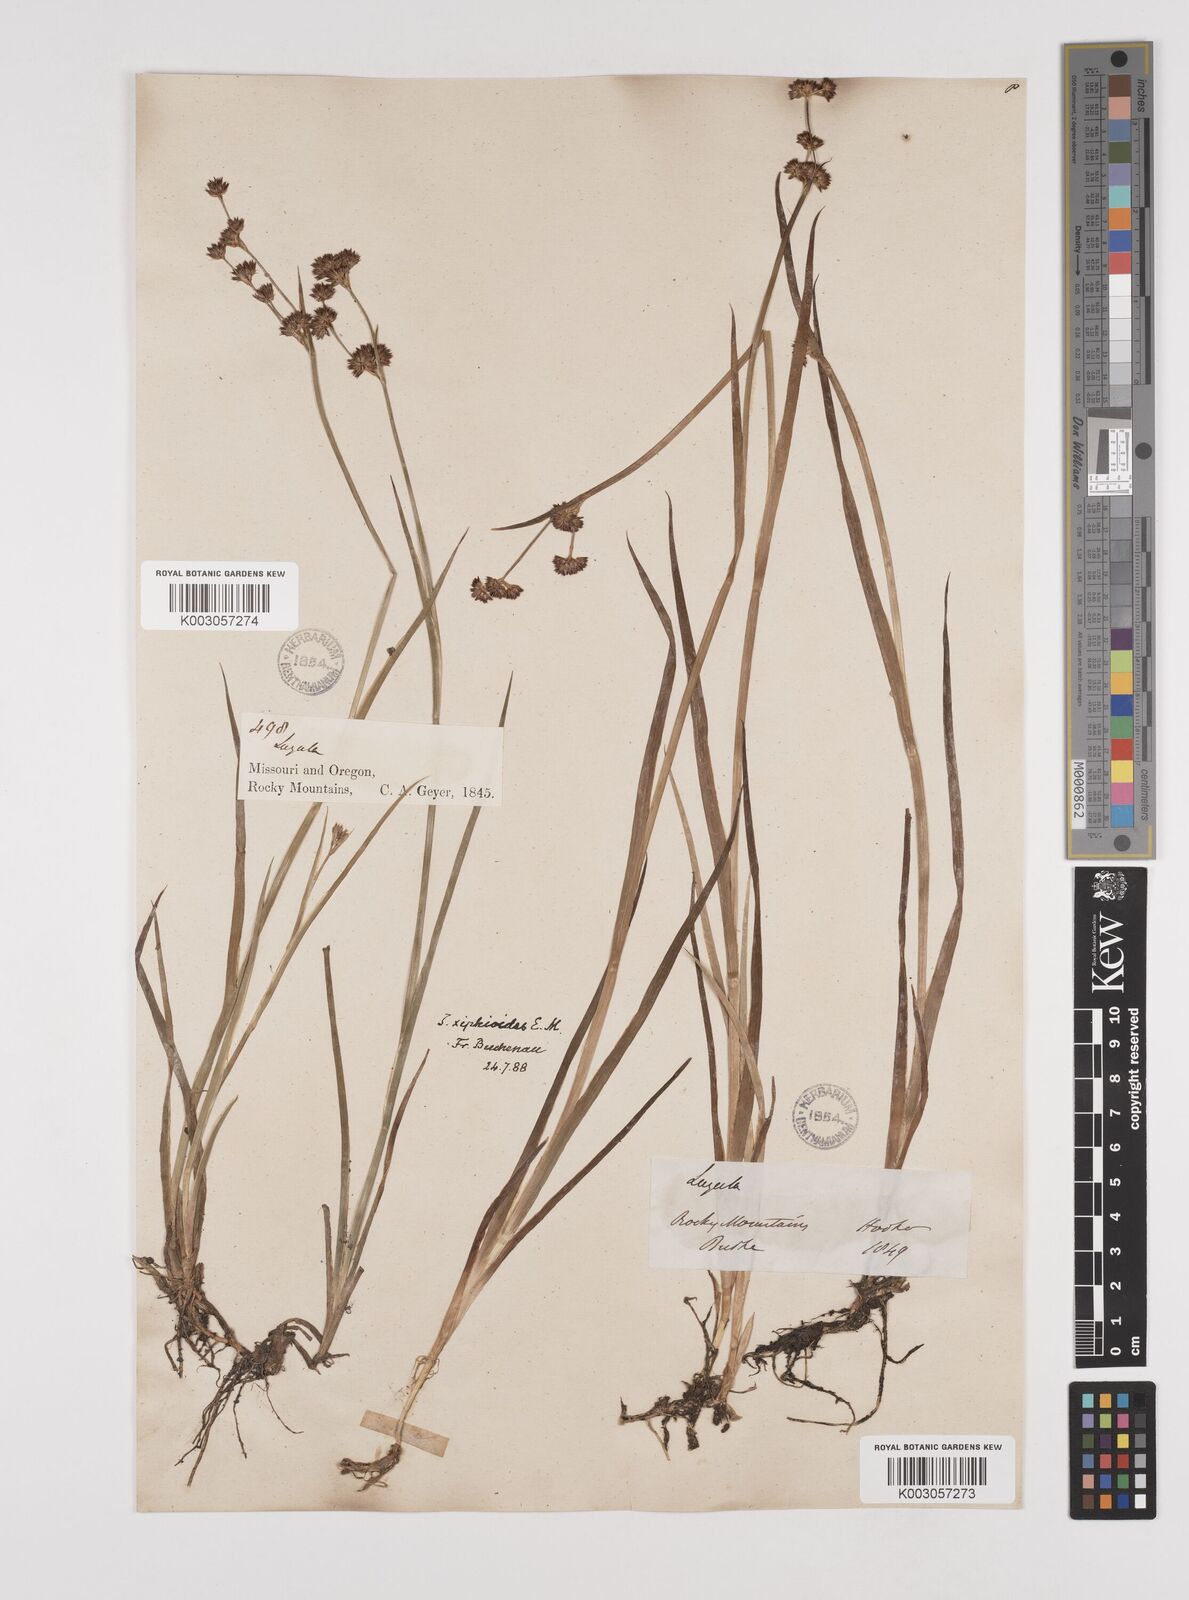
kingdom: Plantae
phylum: Tracheophyta
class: Liliopsida
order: Poales
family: Juncaceae
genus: Juncus
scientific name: Juncus xiphioides
